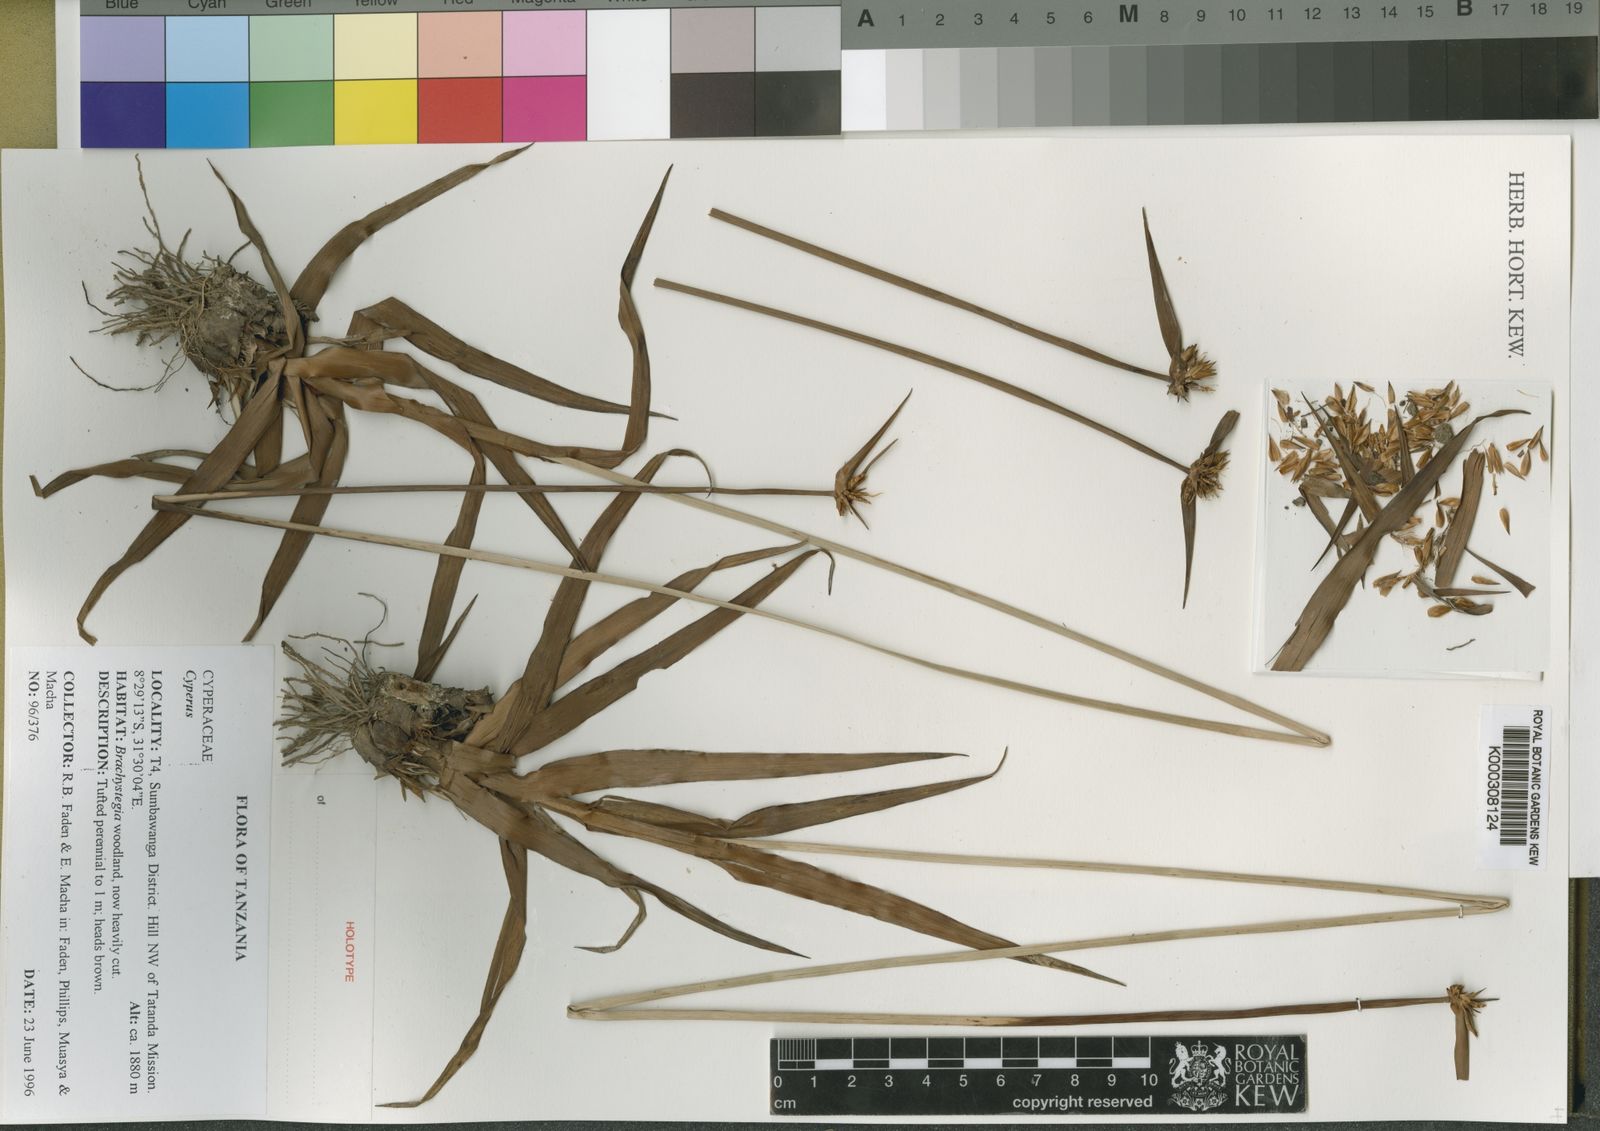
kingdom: Plantae
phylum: Tracheophyta
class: Liliopsida
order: Poales
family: Cyperaceae
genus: Cyperus
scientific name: Cyperus
